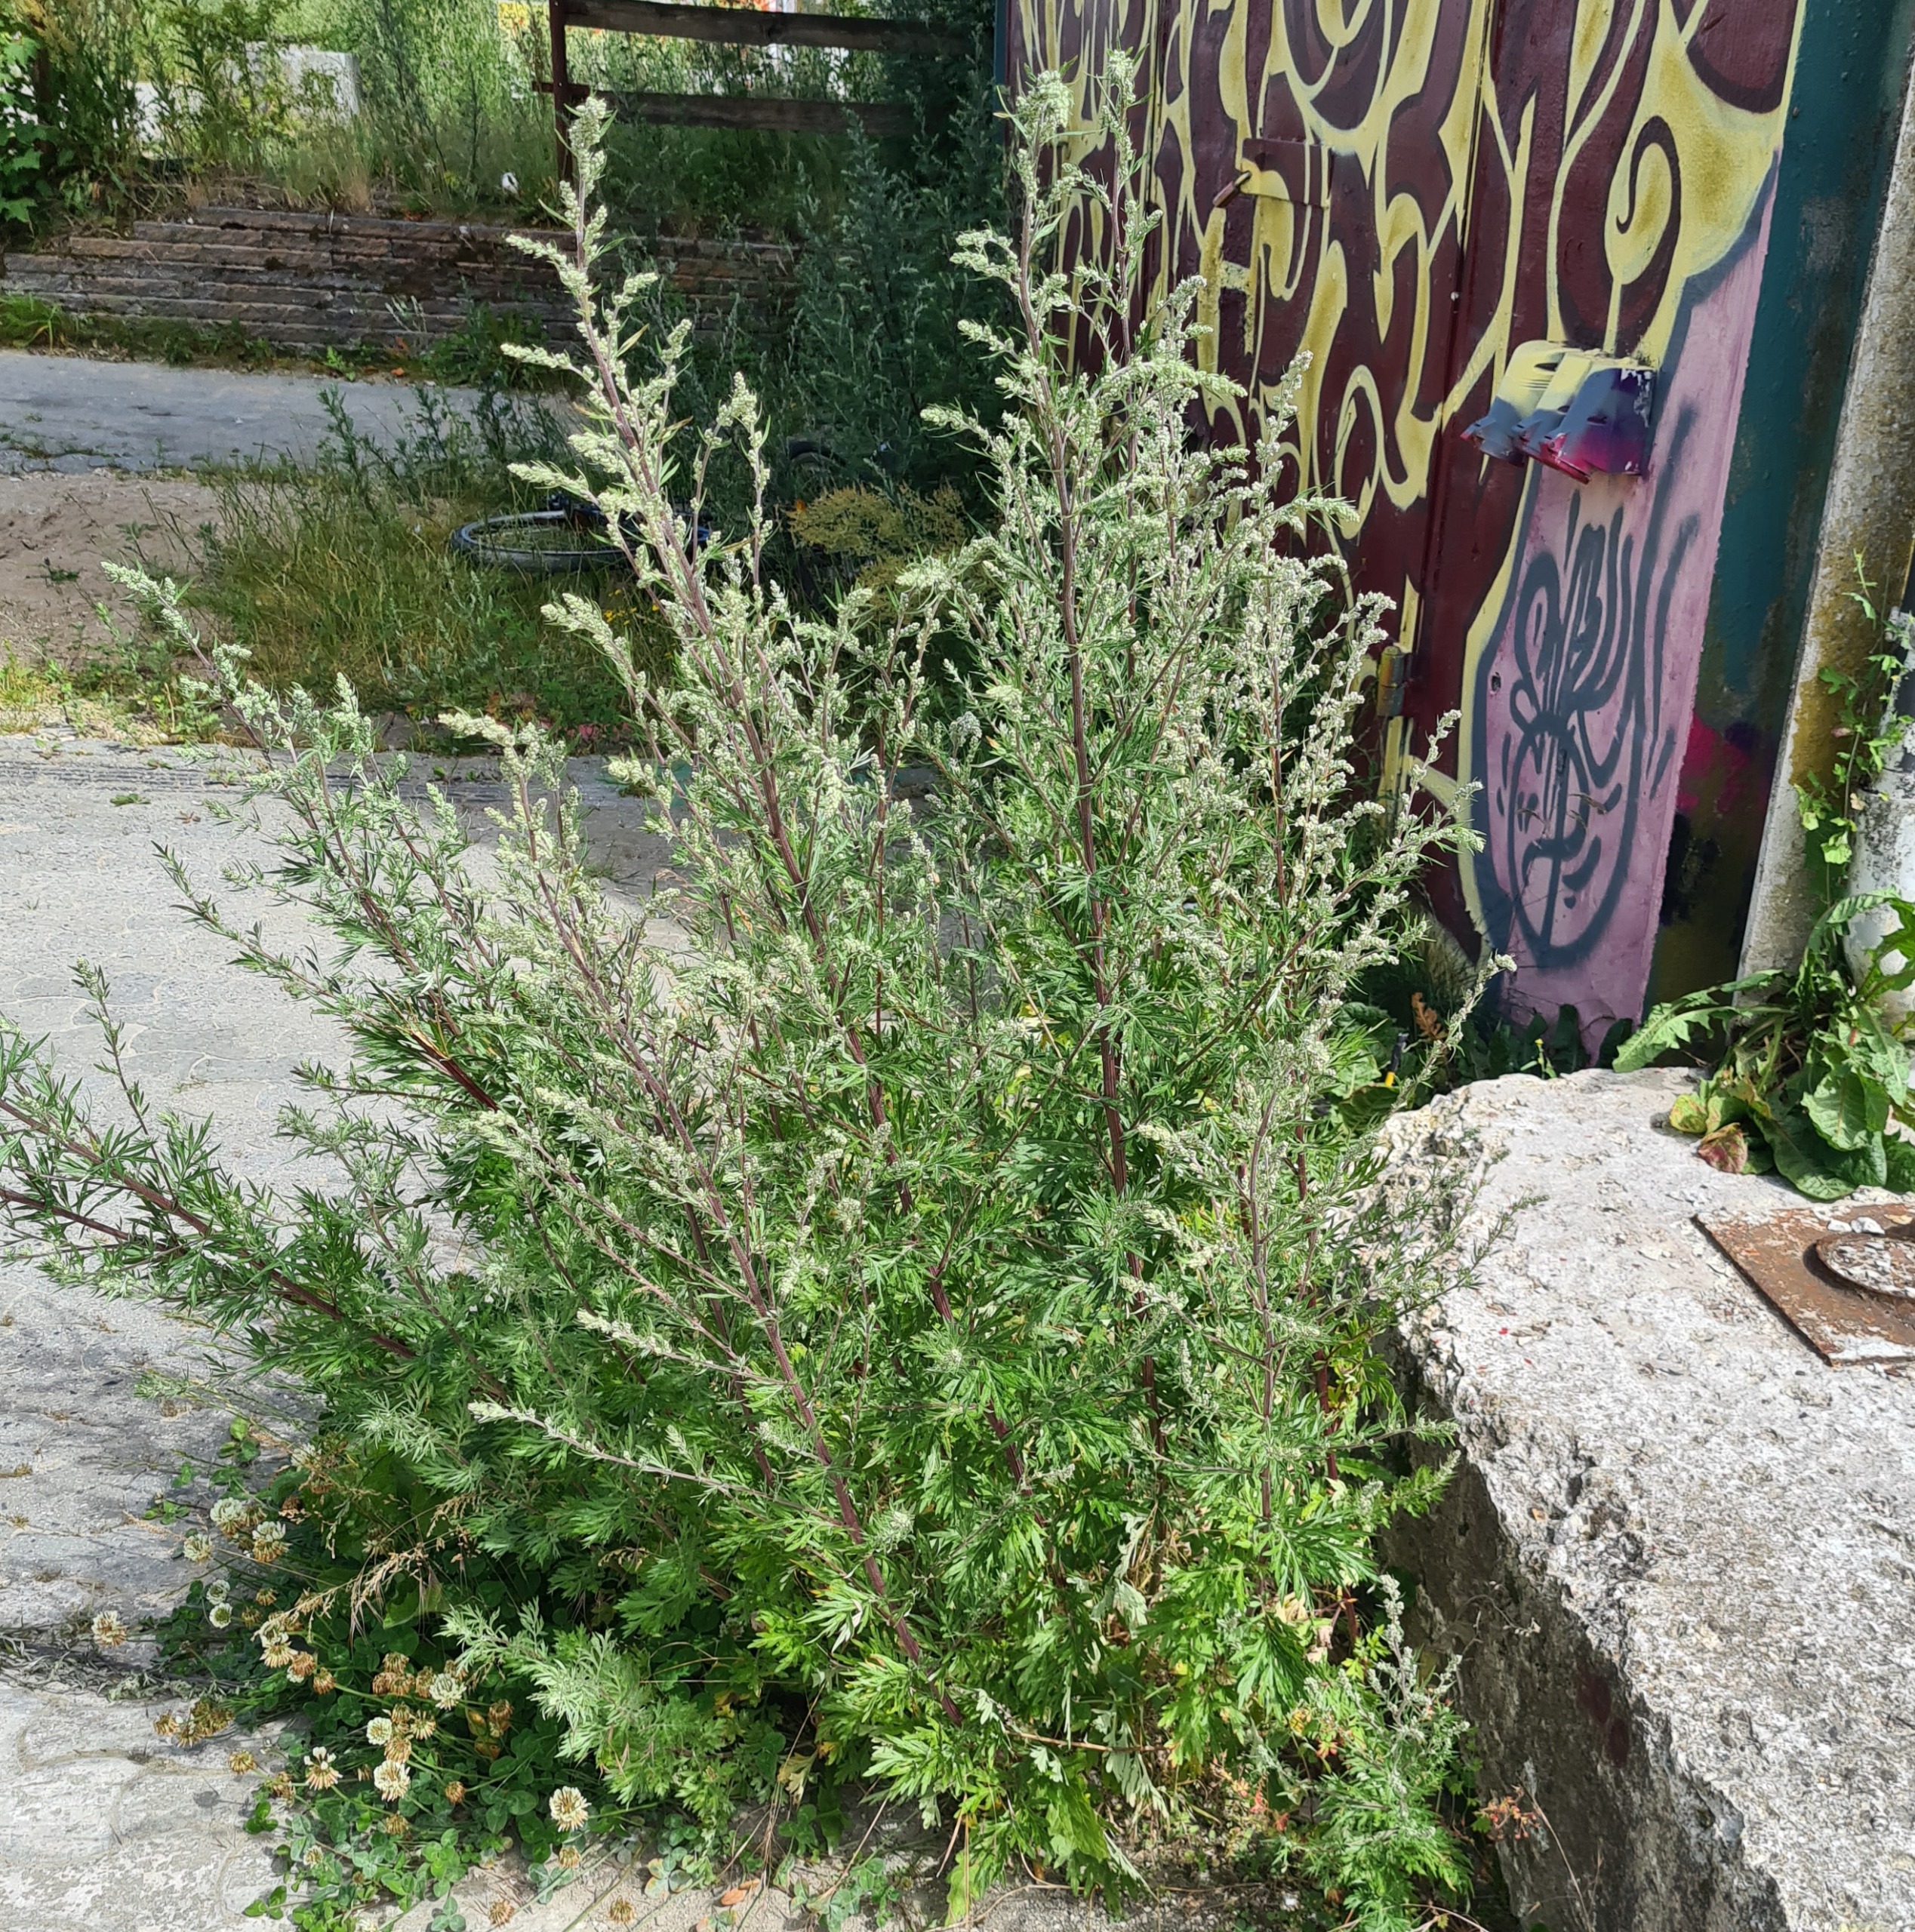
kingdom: Plantae
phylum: Tracheophyta
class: Magnoliopsida
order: Asterales
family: Asteraceae
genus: Artemisia
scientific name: Artemisia vulgaris
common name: Grå-bynke
